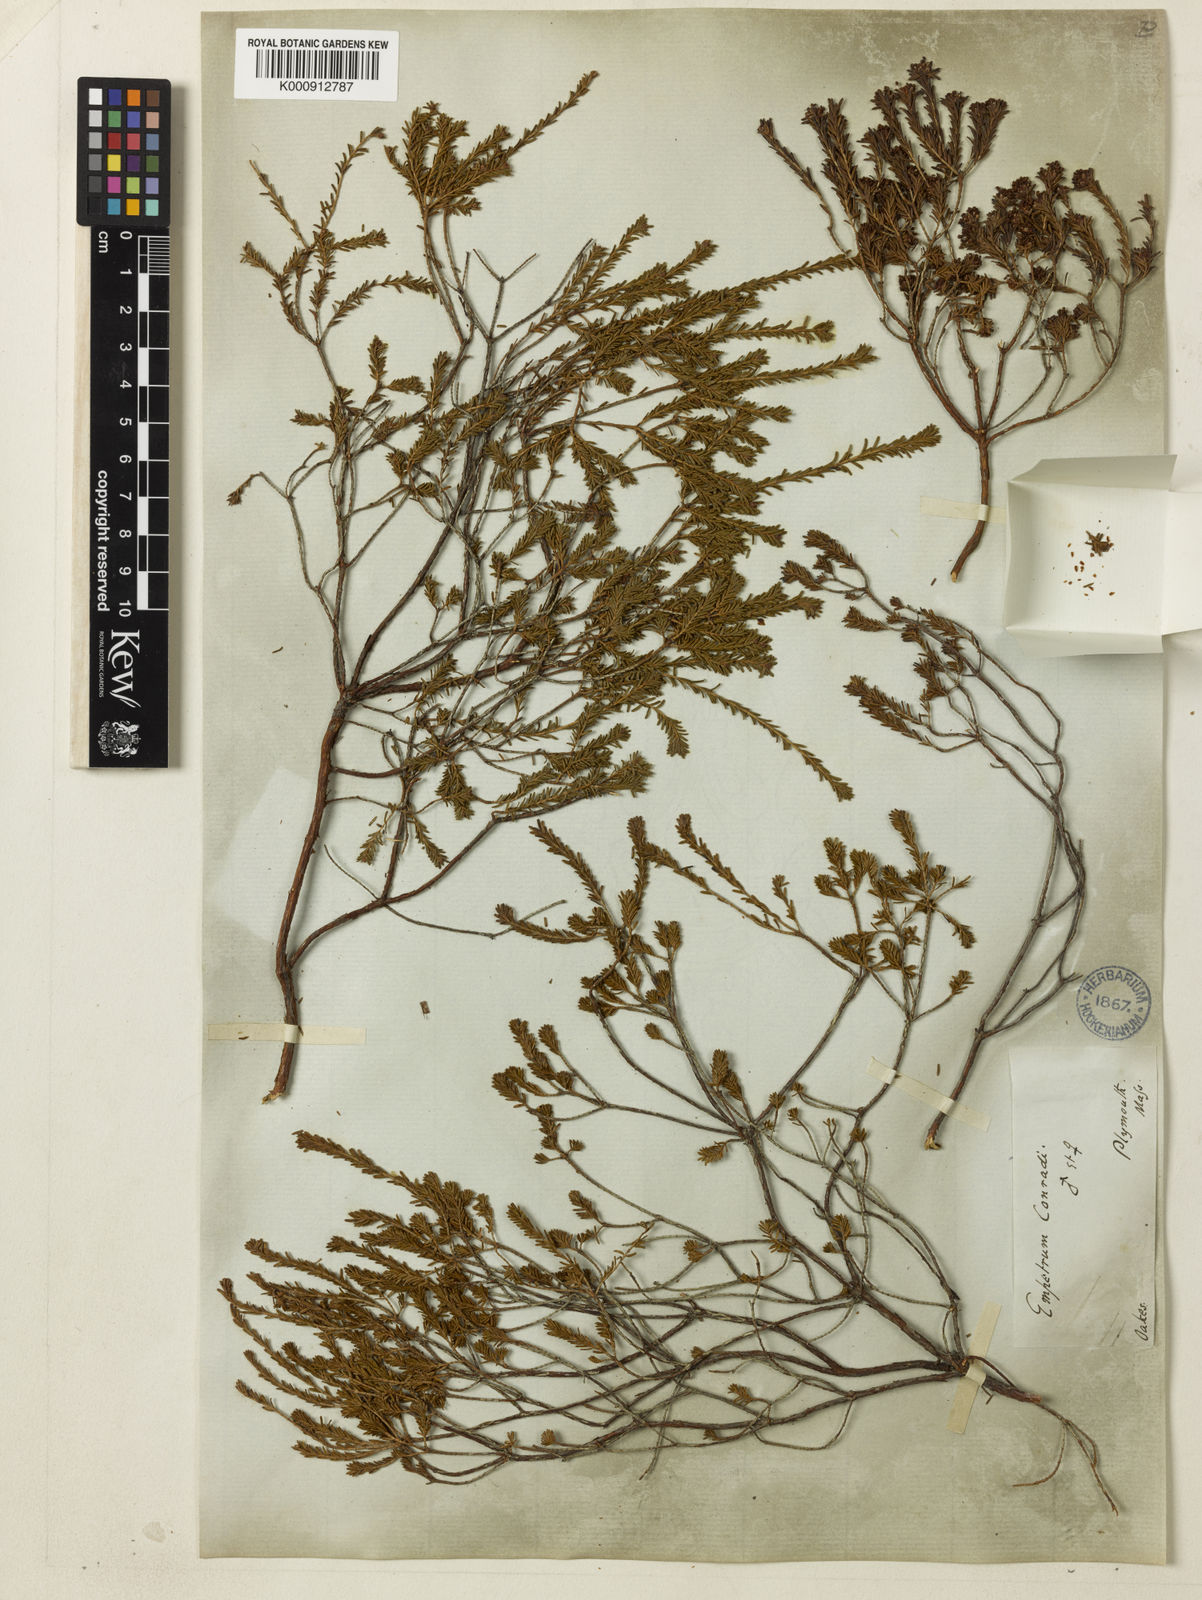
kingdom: Plantae
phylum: Tracheophyta
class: Magnoliopsida
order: Ericales
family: Ericaceae
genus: Corema
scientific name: Corema
